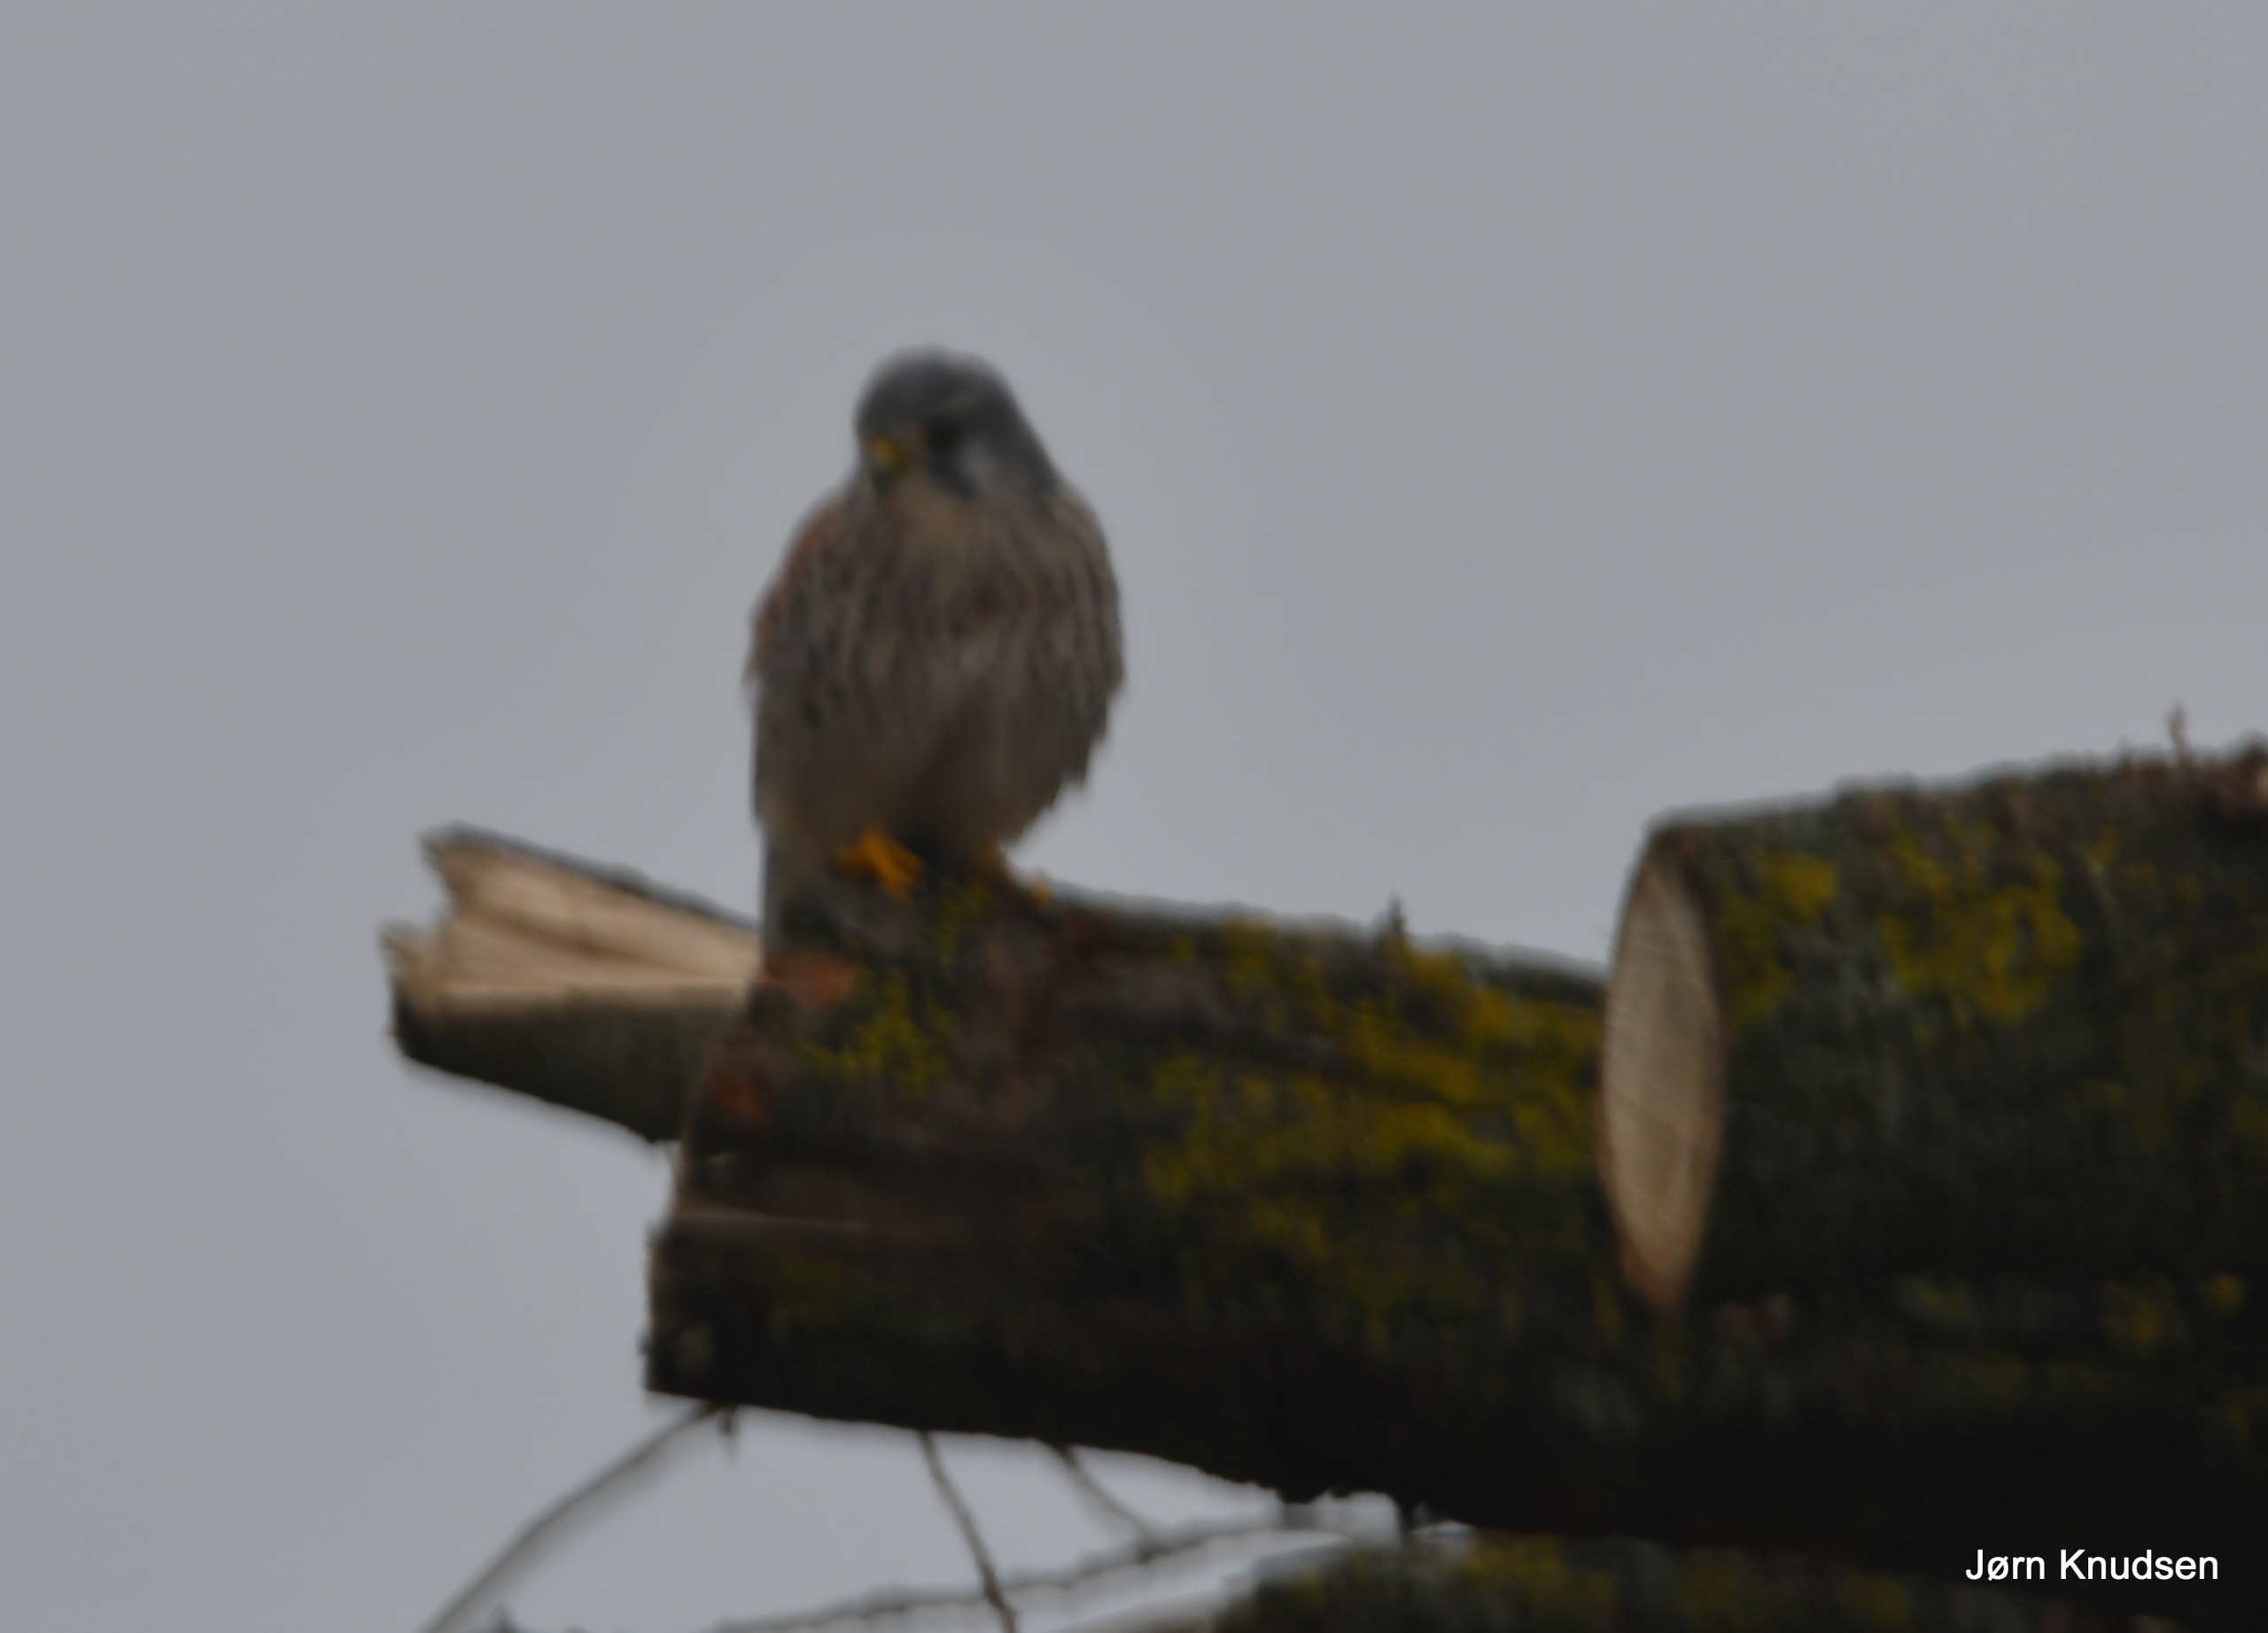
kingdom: Animalia
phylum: Chordata
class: Aves
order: Falconiformes
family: Falconidae
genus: Falco
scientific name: Falco tinnunculus
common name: Tårnfalk
